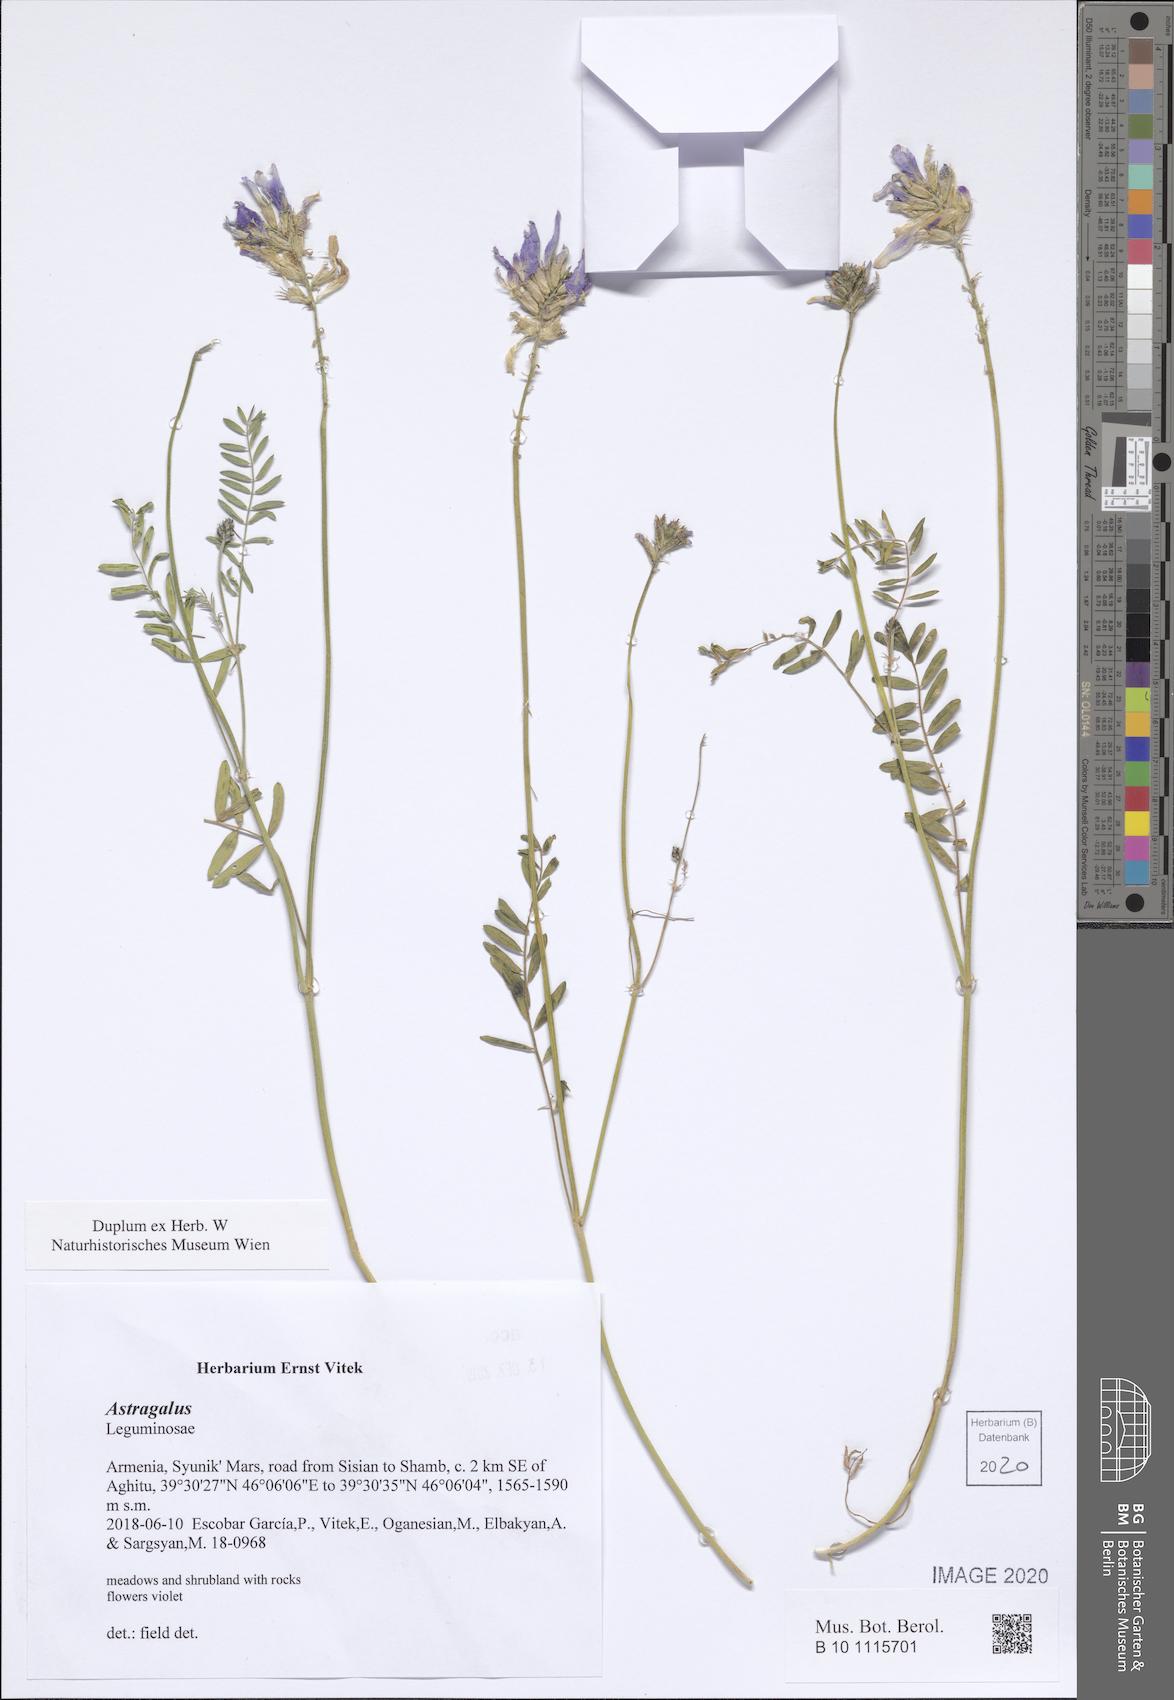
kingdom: Plantae
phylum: Tracheophyta
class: Magnoliopsida
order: Fabales
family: Fabaceae
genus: Astragalus
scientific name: Astragalus
